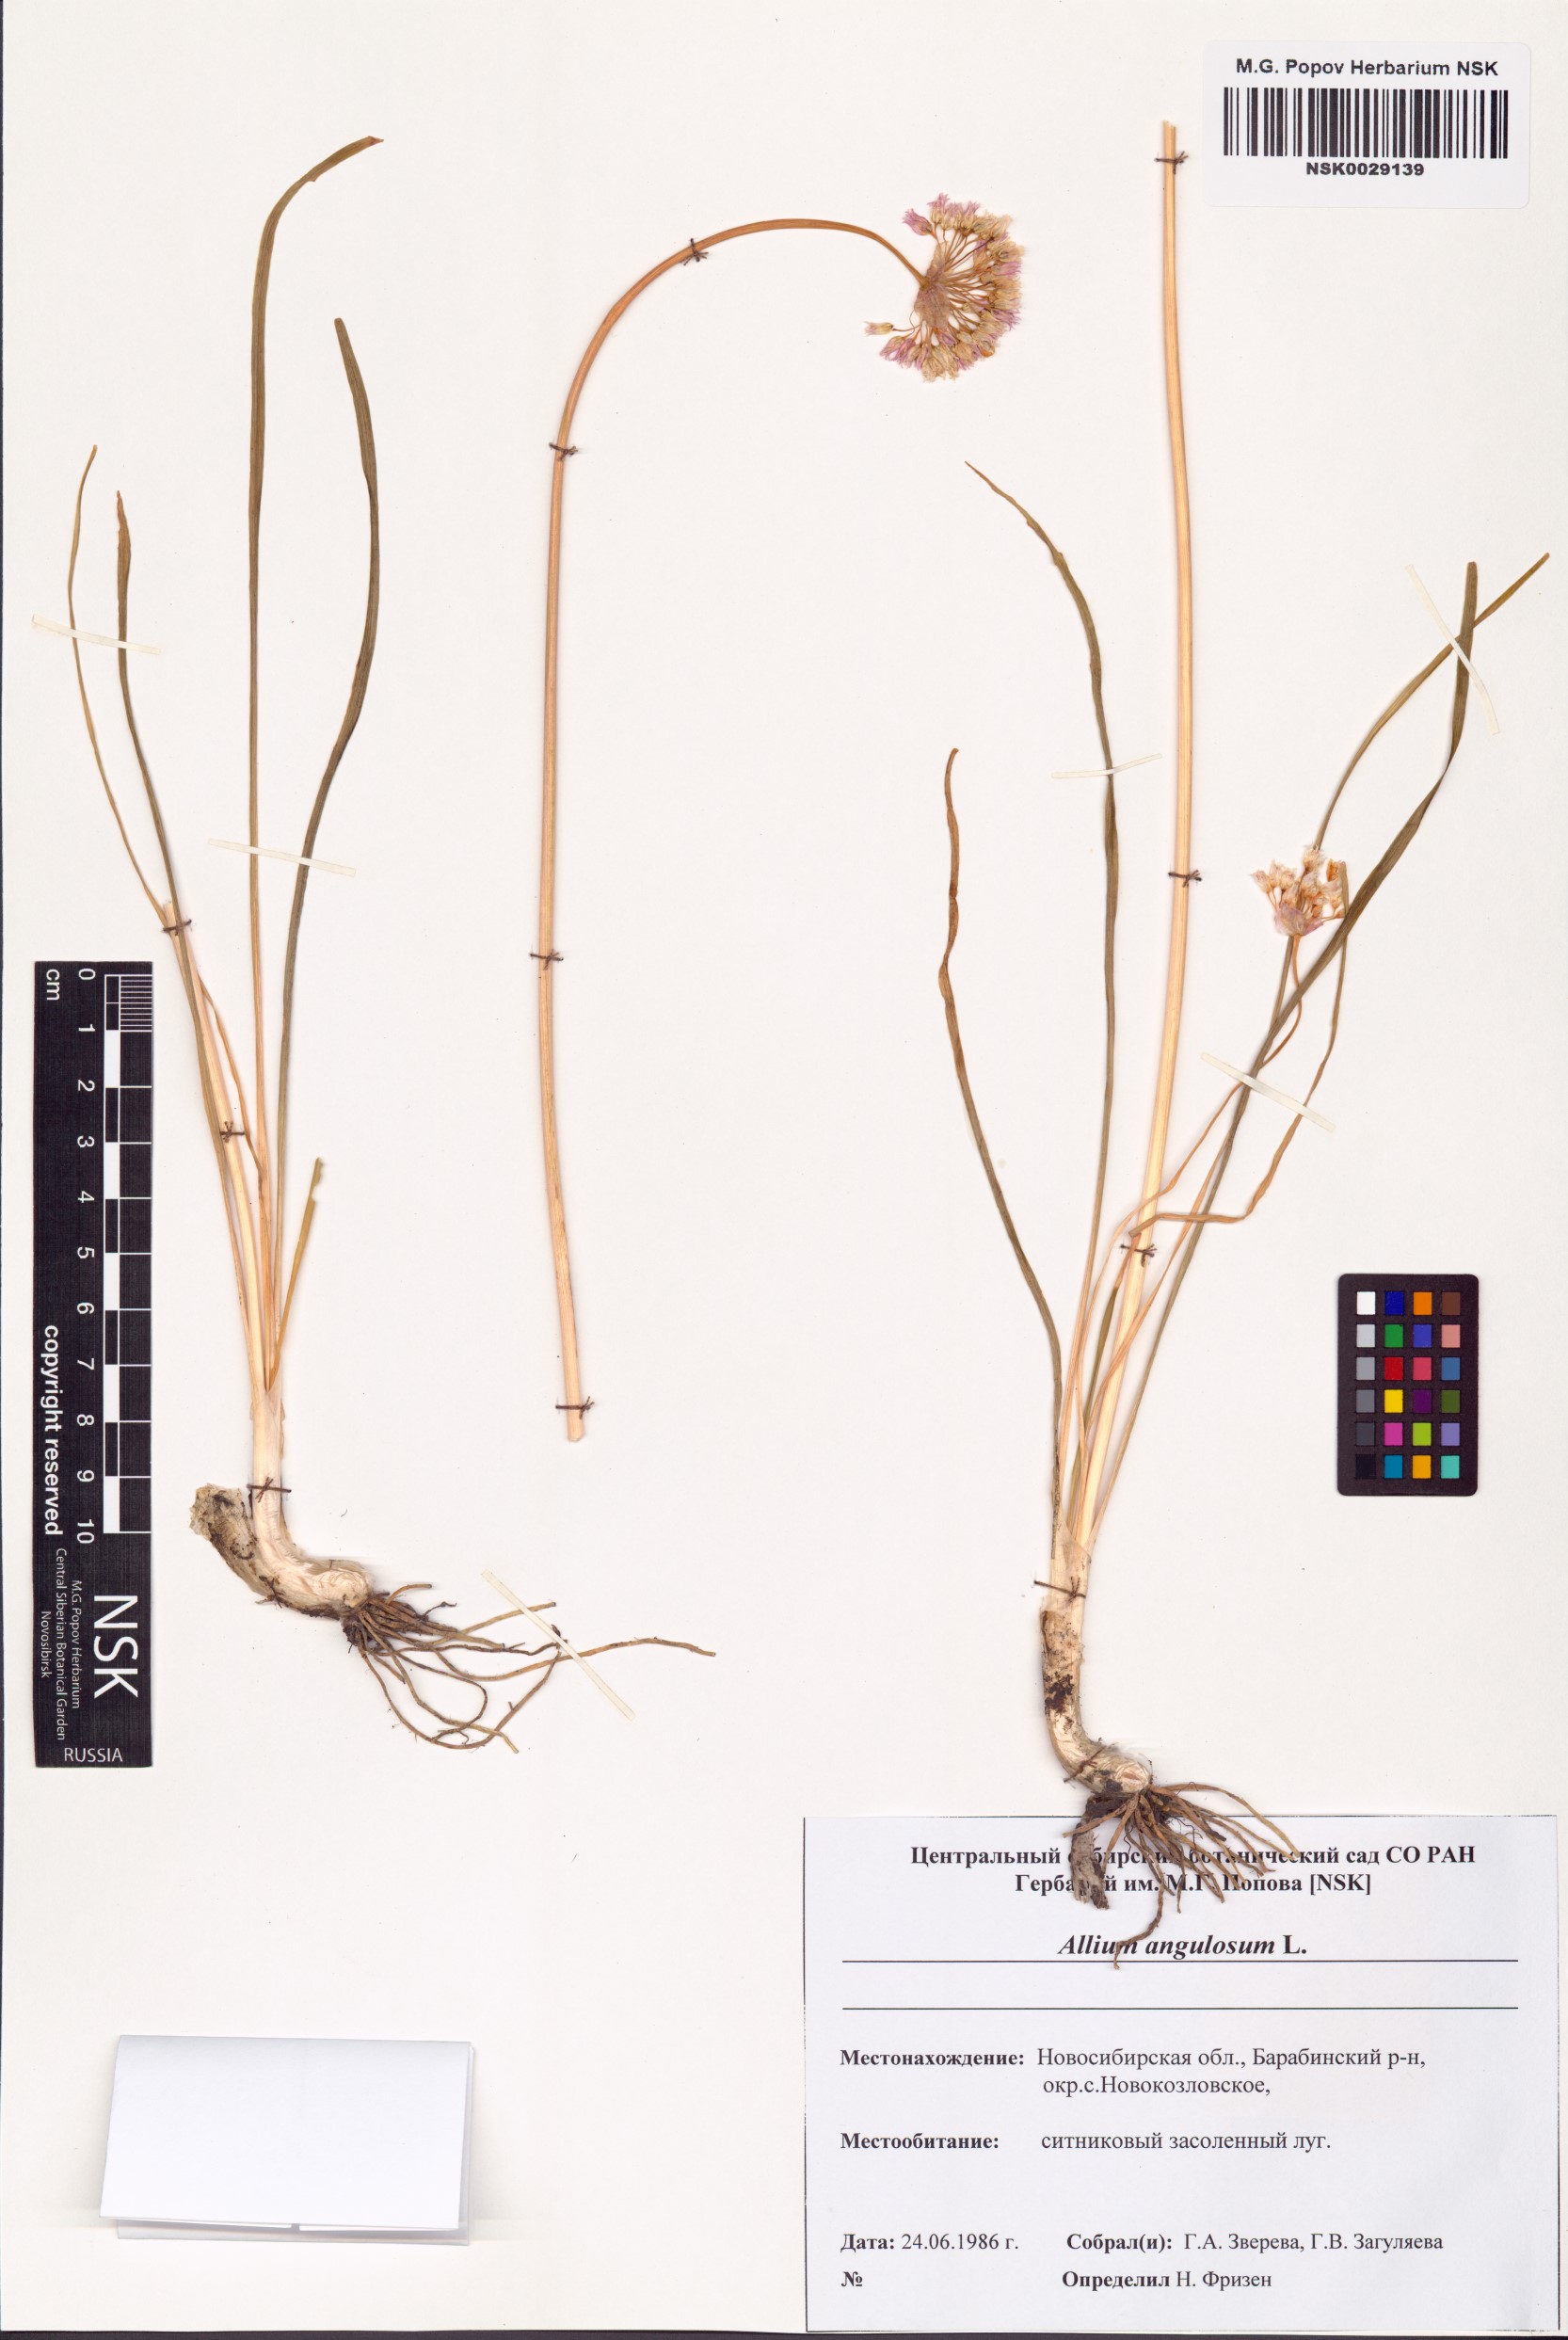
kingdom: Plantae
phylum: Tracheophyta
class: Liliopsida
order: Asparagales
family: Amaryllidaceae
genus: Allium
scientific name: Allium angulosum
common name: Mouse garlic
